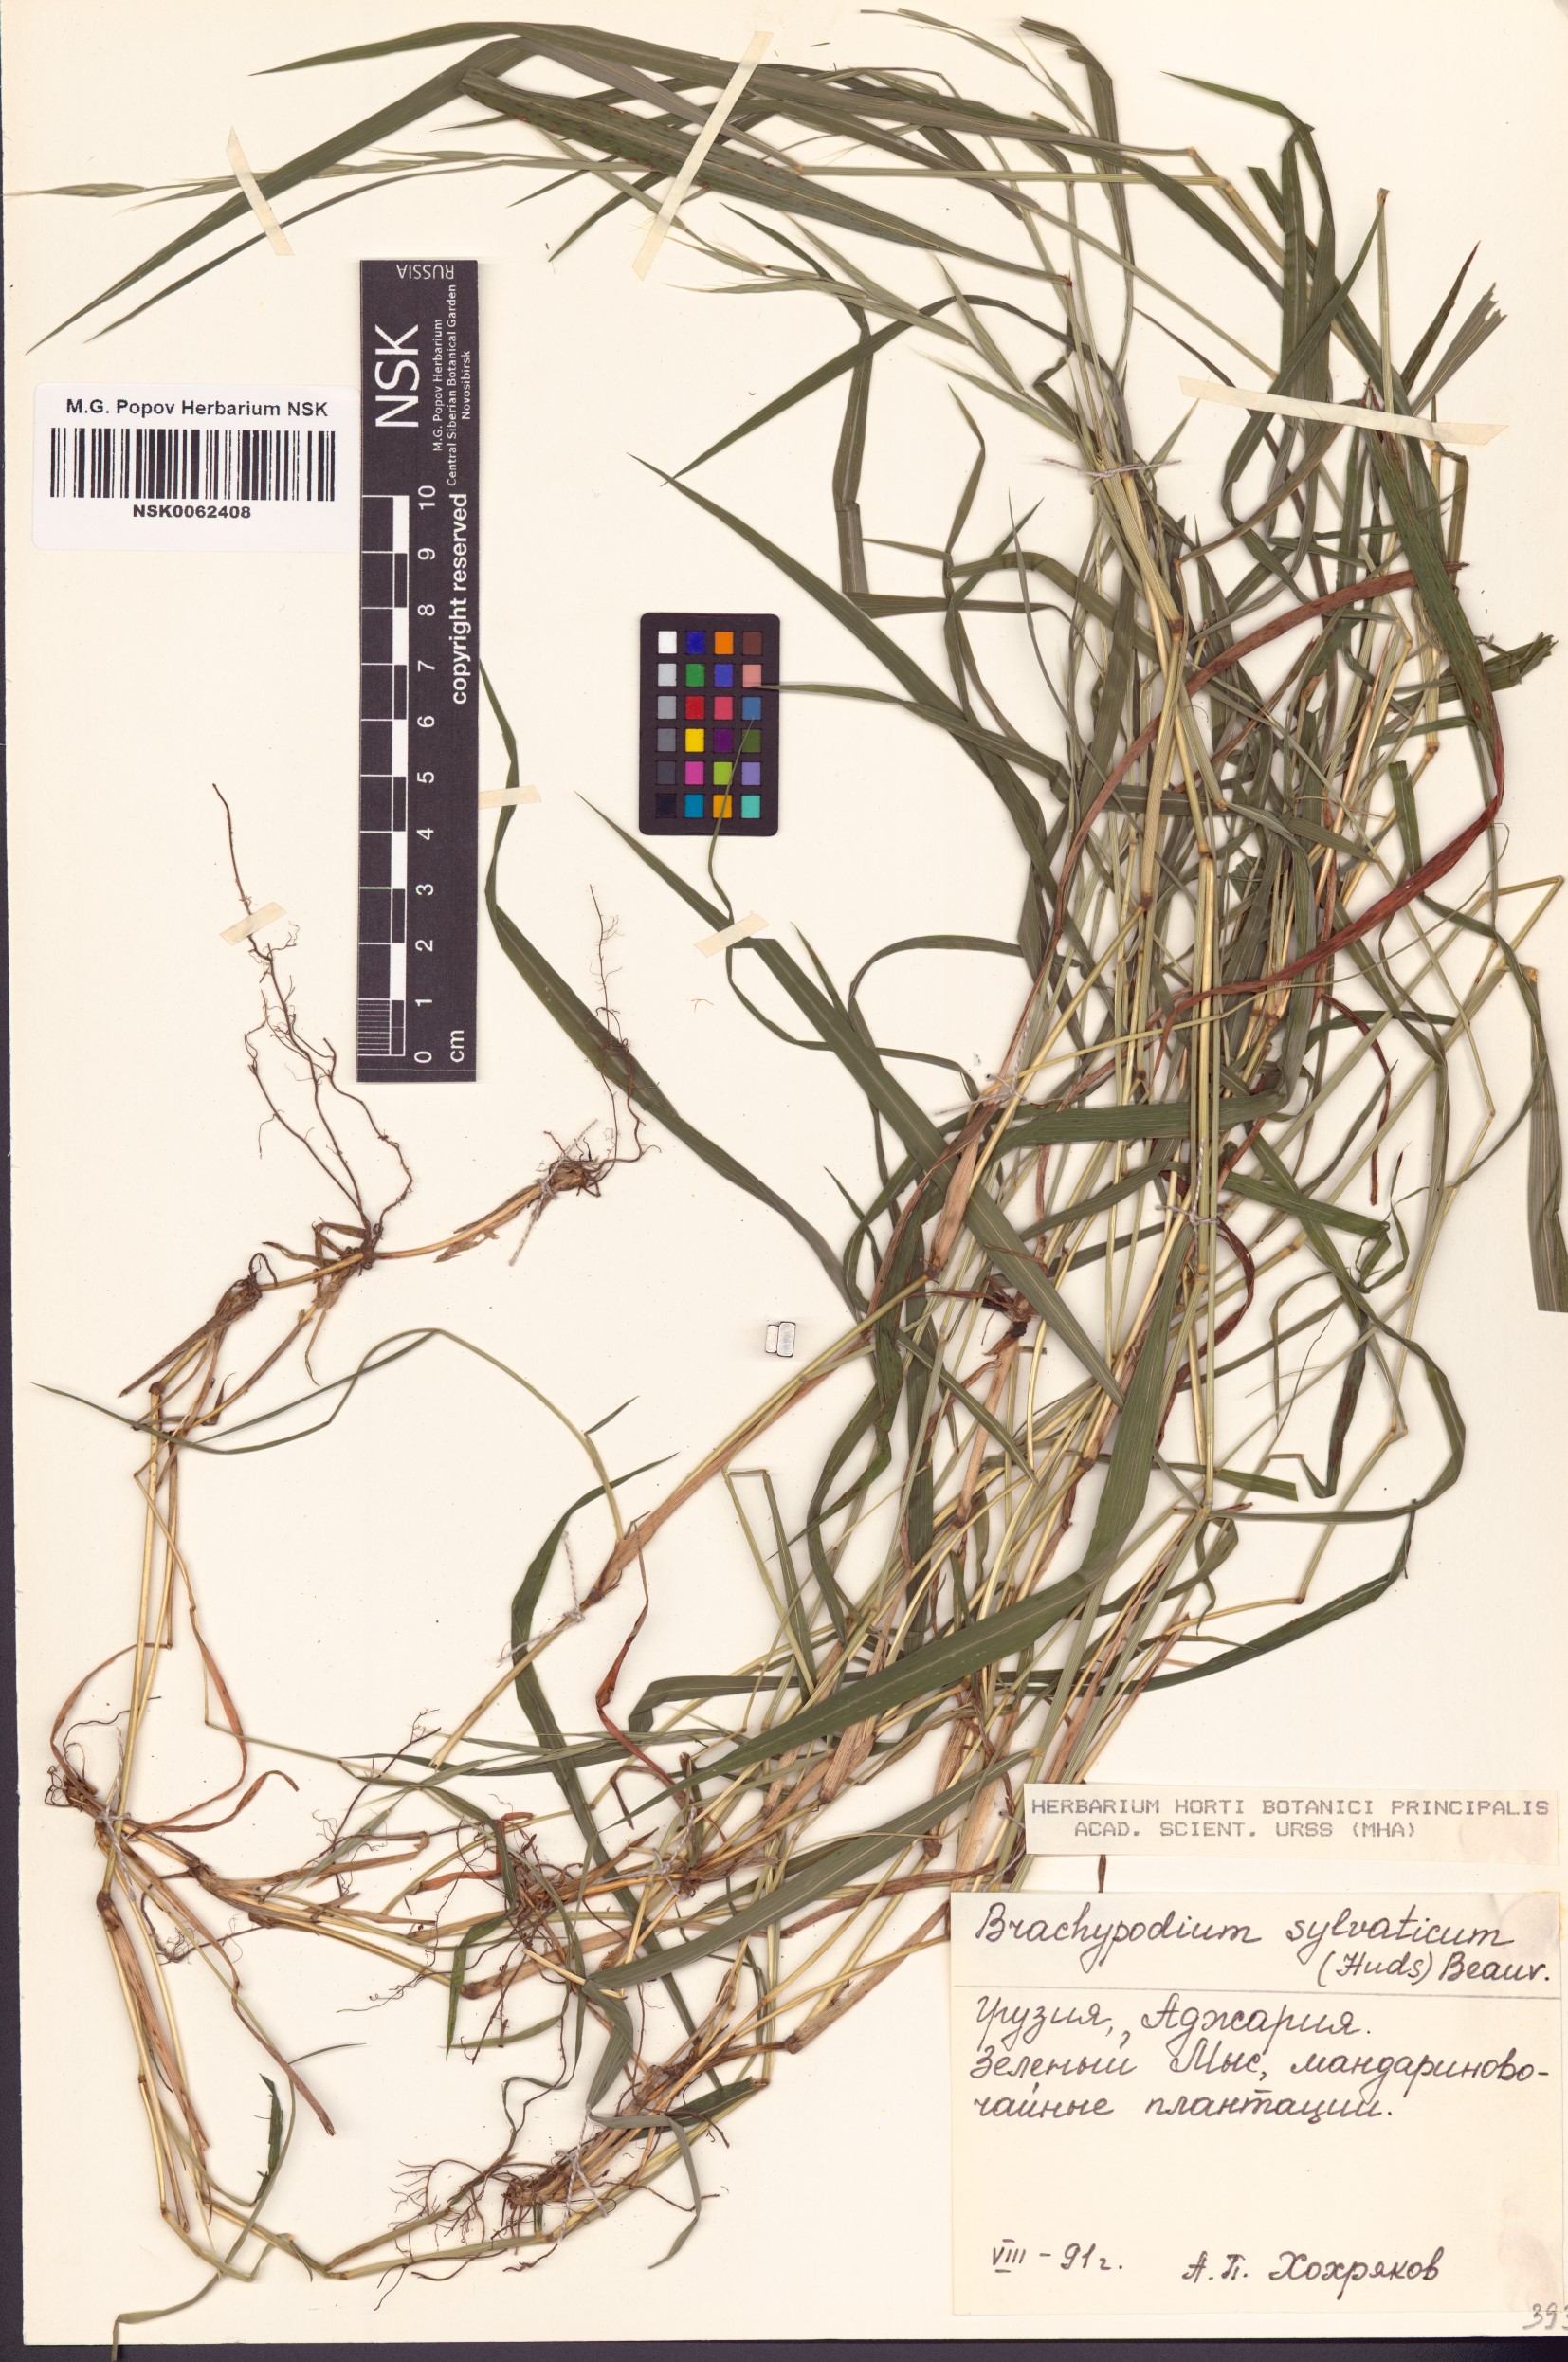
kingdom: Plantae
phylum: Tracheophyta
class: Liliopsida
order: Poales
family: Poaceae
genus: Brachypodium
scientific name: Brachypodium sylvaticum
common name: False-brome
